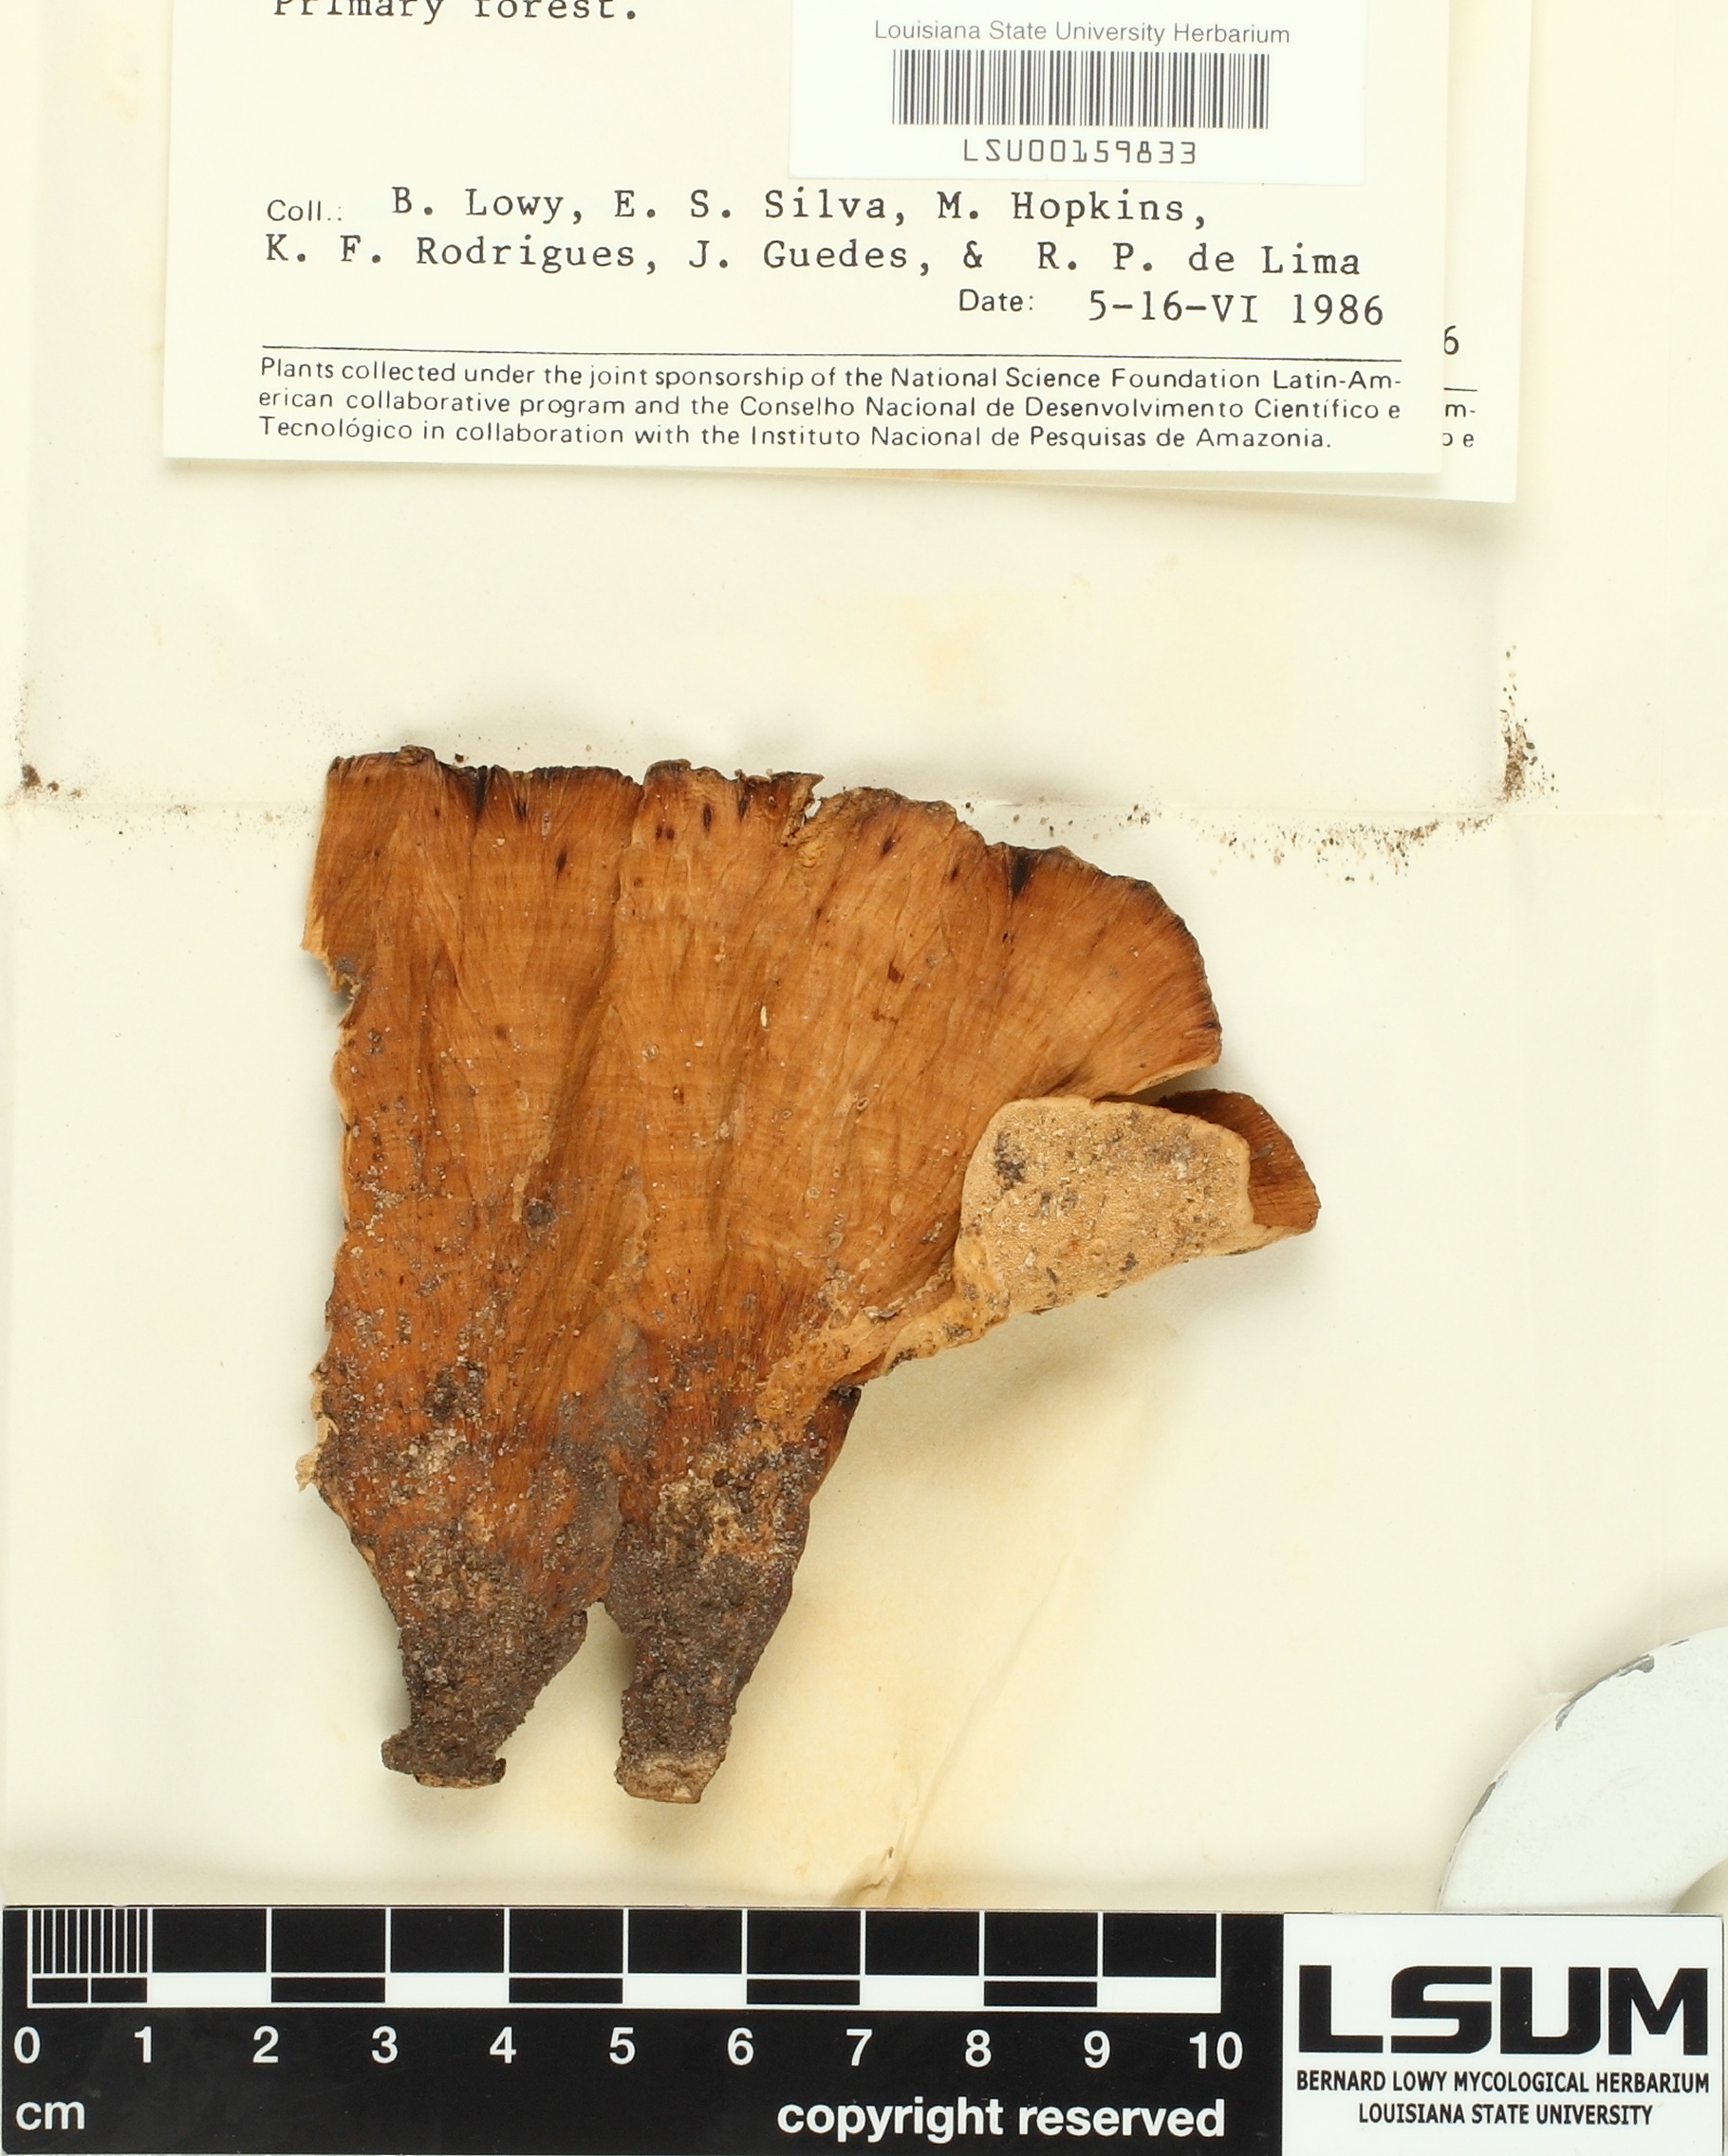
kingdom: Fungi
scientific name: Fungi
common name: Fungi
